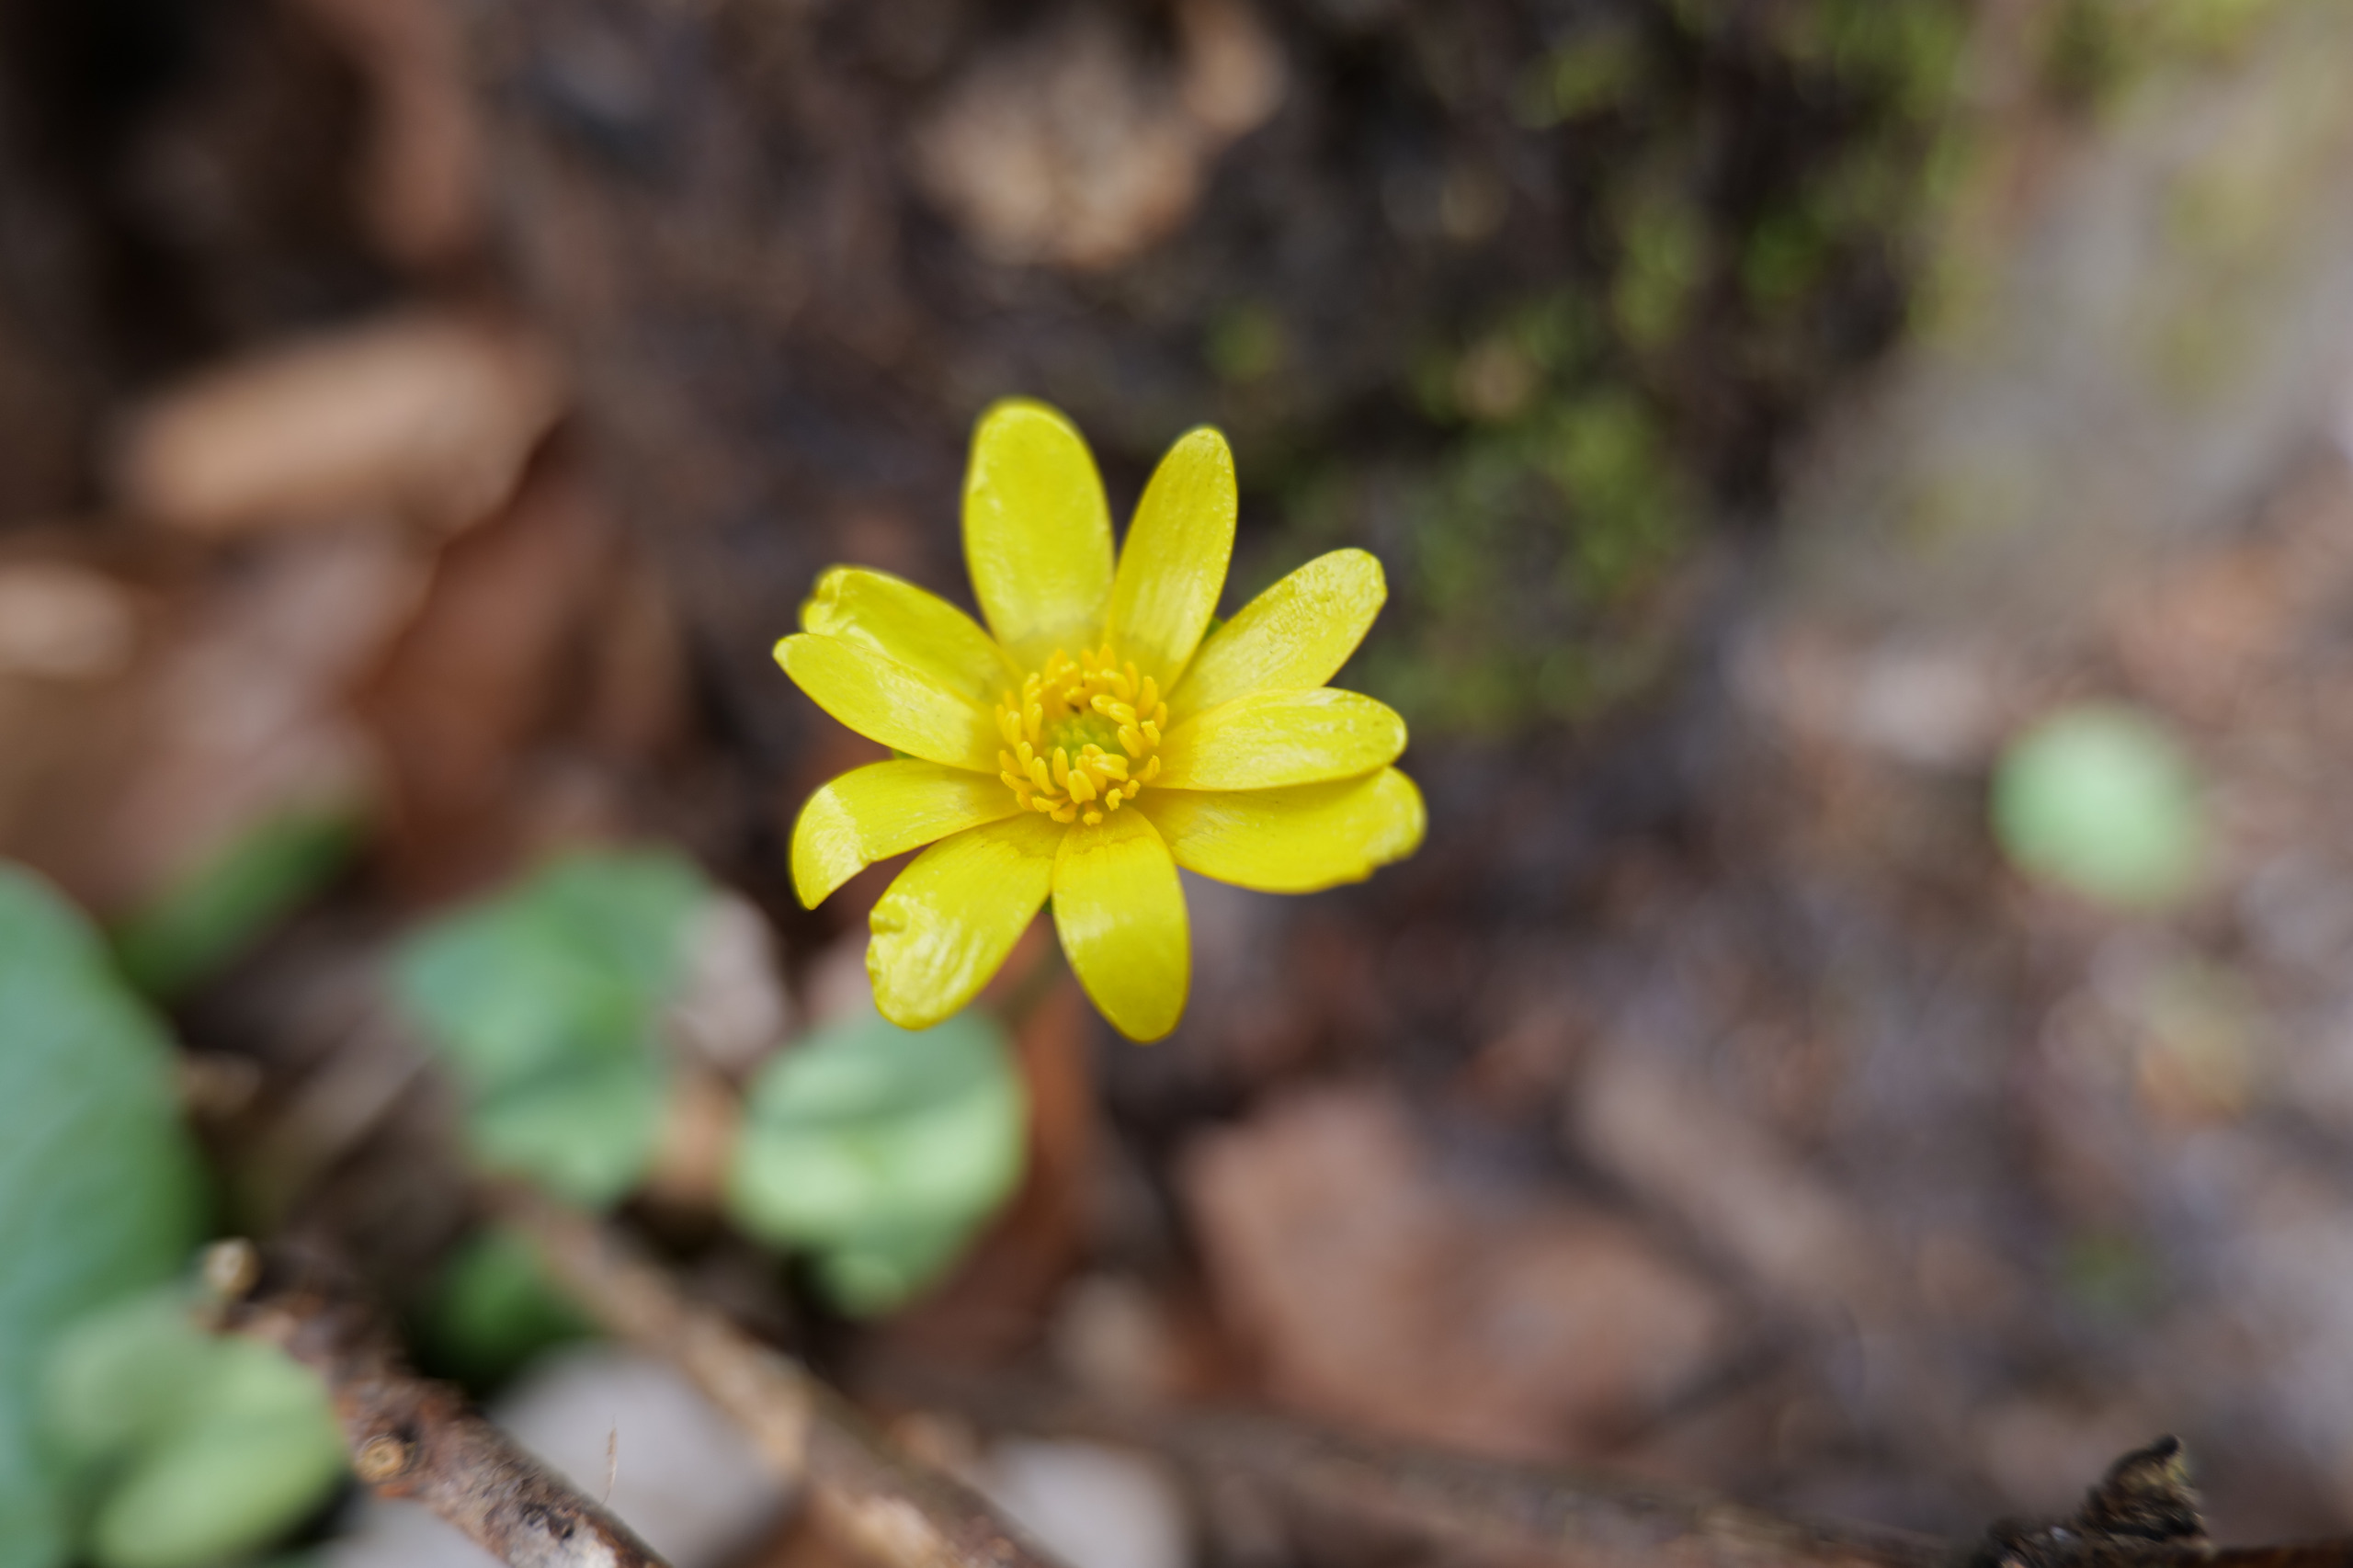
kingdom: Plantae
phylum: Tracheophyta
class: Magnoliopsida
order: Ranunculales
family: Ranunculaceae
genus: Ficaria
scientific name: Ficaria verna
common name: Vorterod
